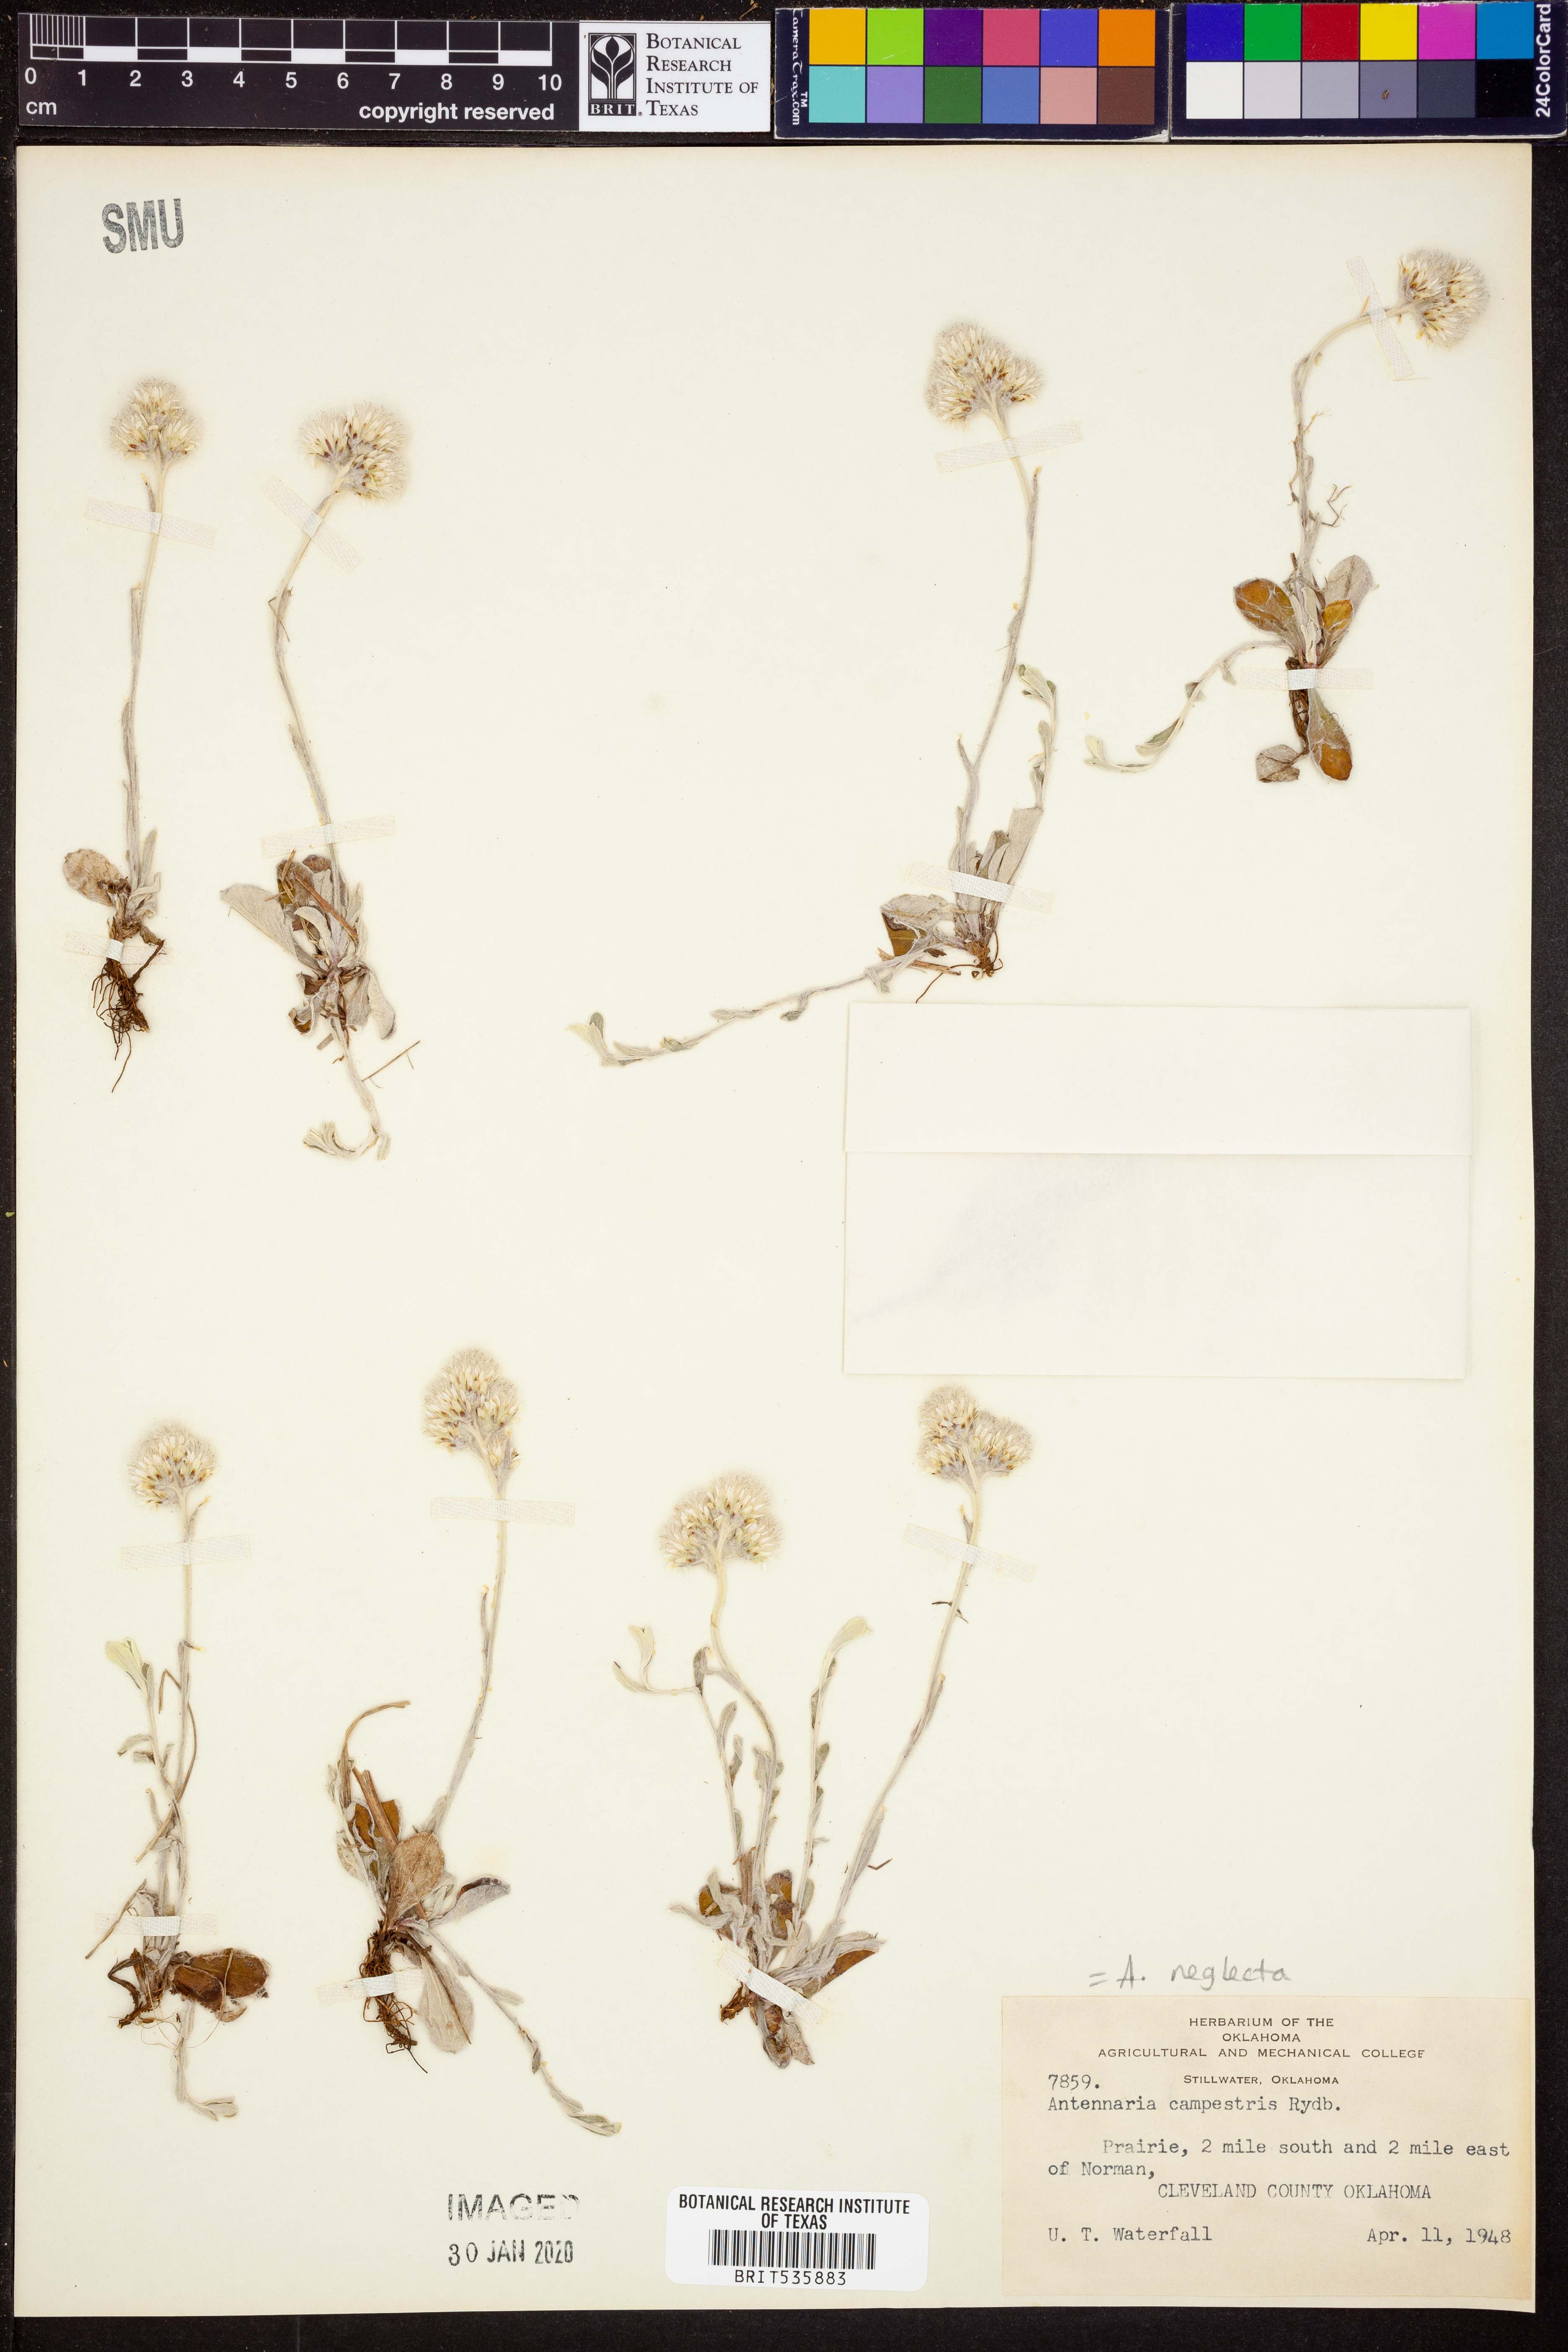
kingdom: Plantae
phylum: Tracheophyta
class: Magnoliopsida
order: Asterales
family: Asteraceae
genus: Antennaria
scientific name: Antennaria neglecta
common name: Field pussytoes
